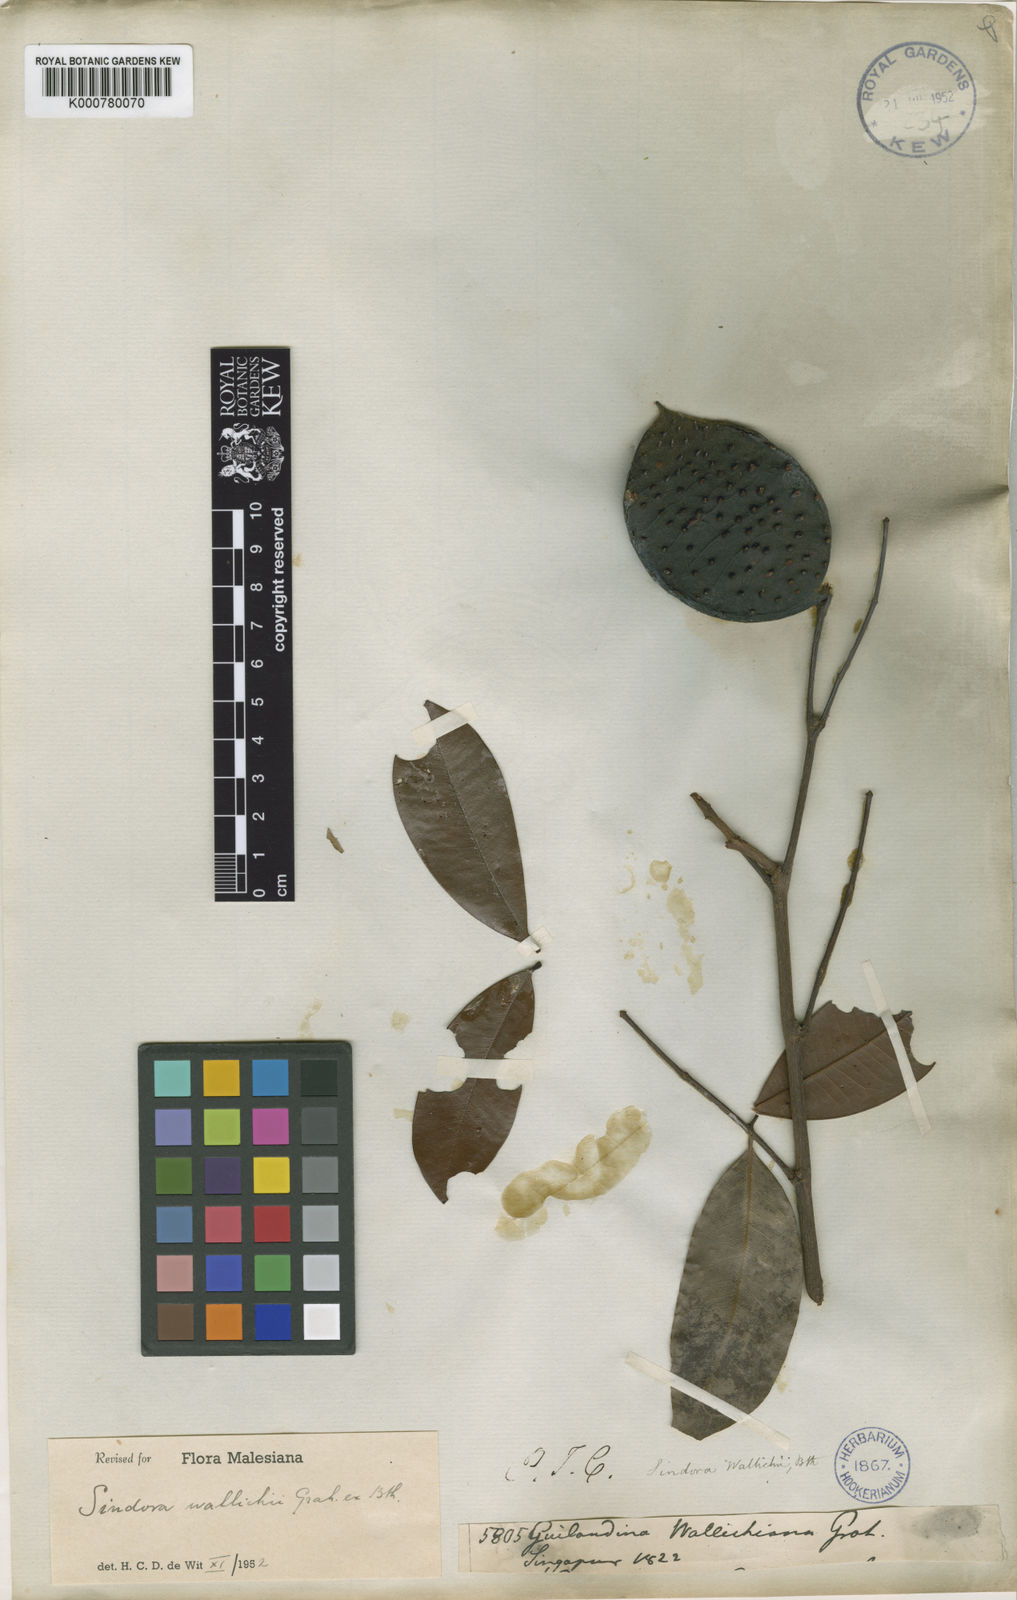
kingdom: Plantae
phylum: Tracheophyta
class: Magnoliopsida
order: Fabales
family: Fabaceae
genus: Sindora
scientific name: Sindora wallichii
